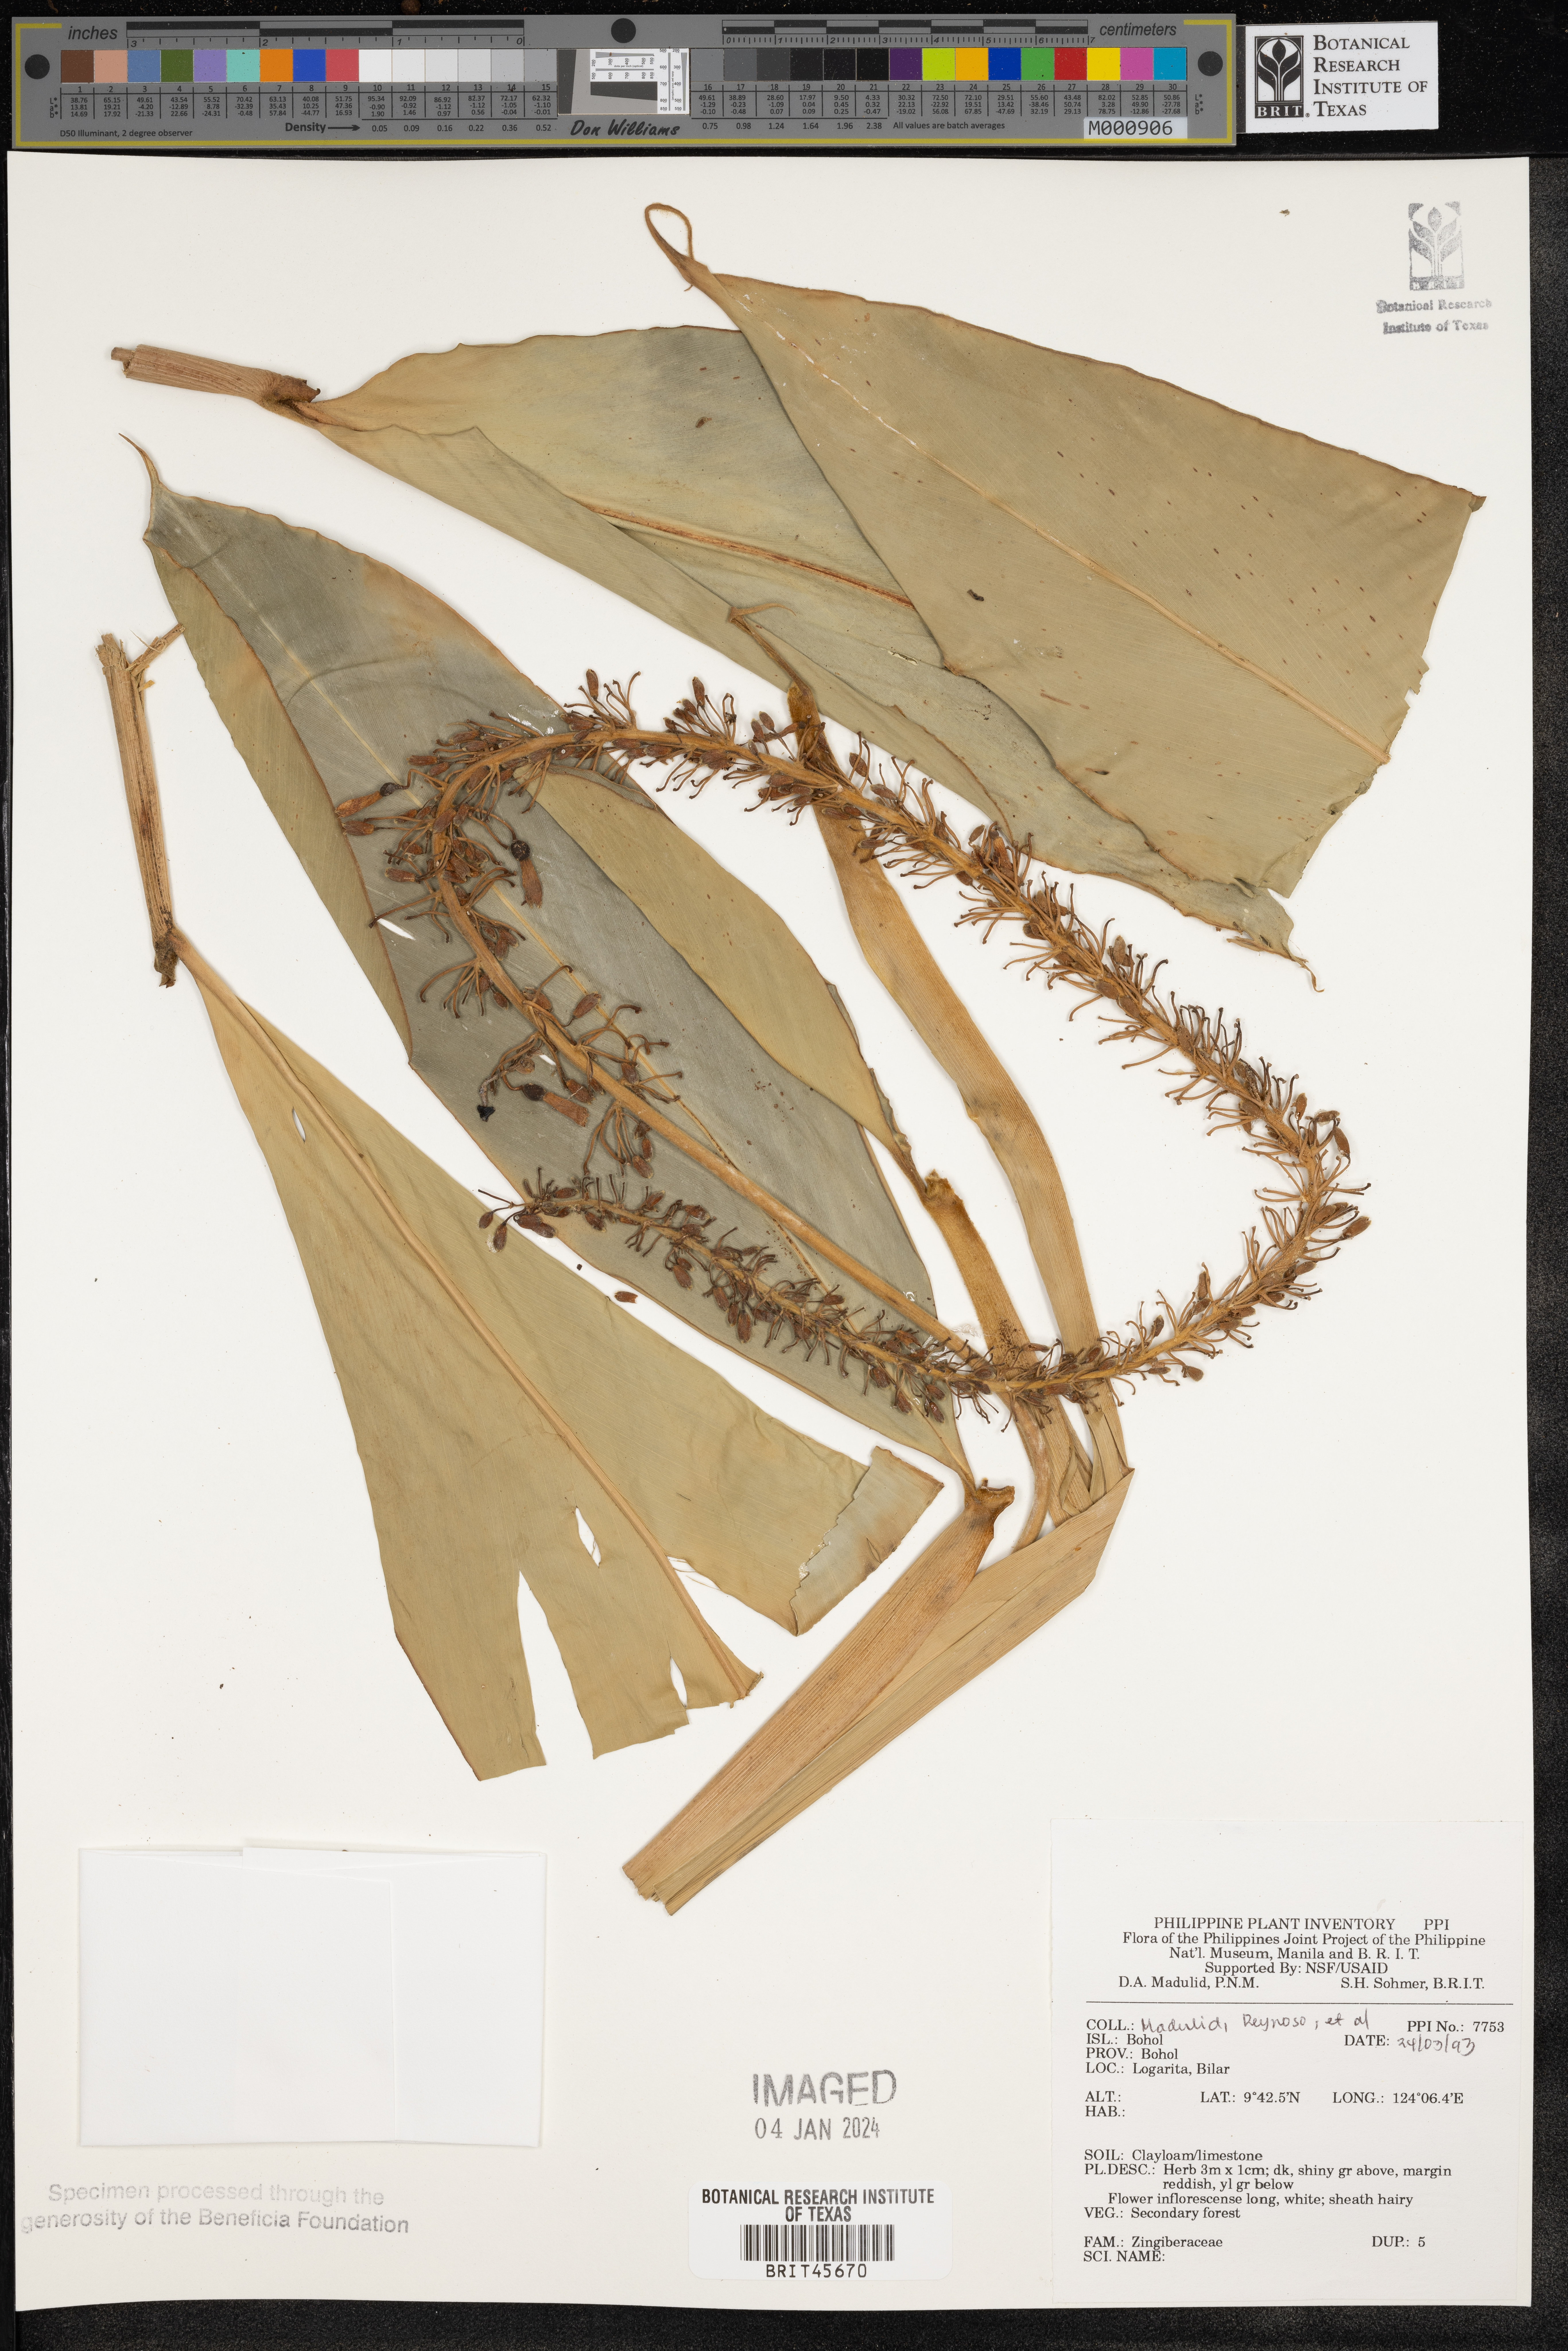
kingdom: Plantae
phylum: Tracheophyta
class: Liliopsida
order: Zingiberales
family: Zingiberaceae
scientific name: Zingiberaceae
